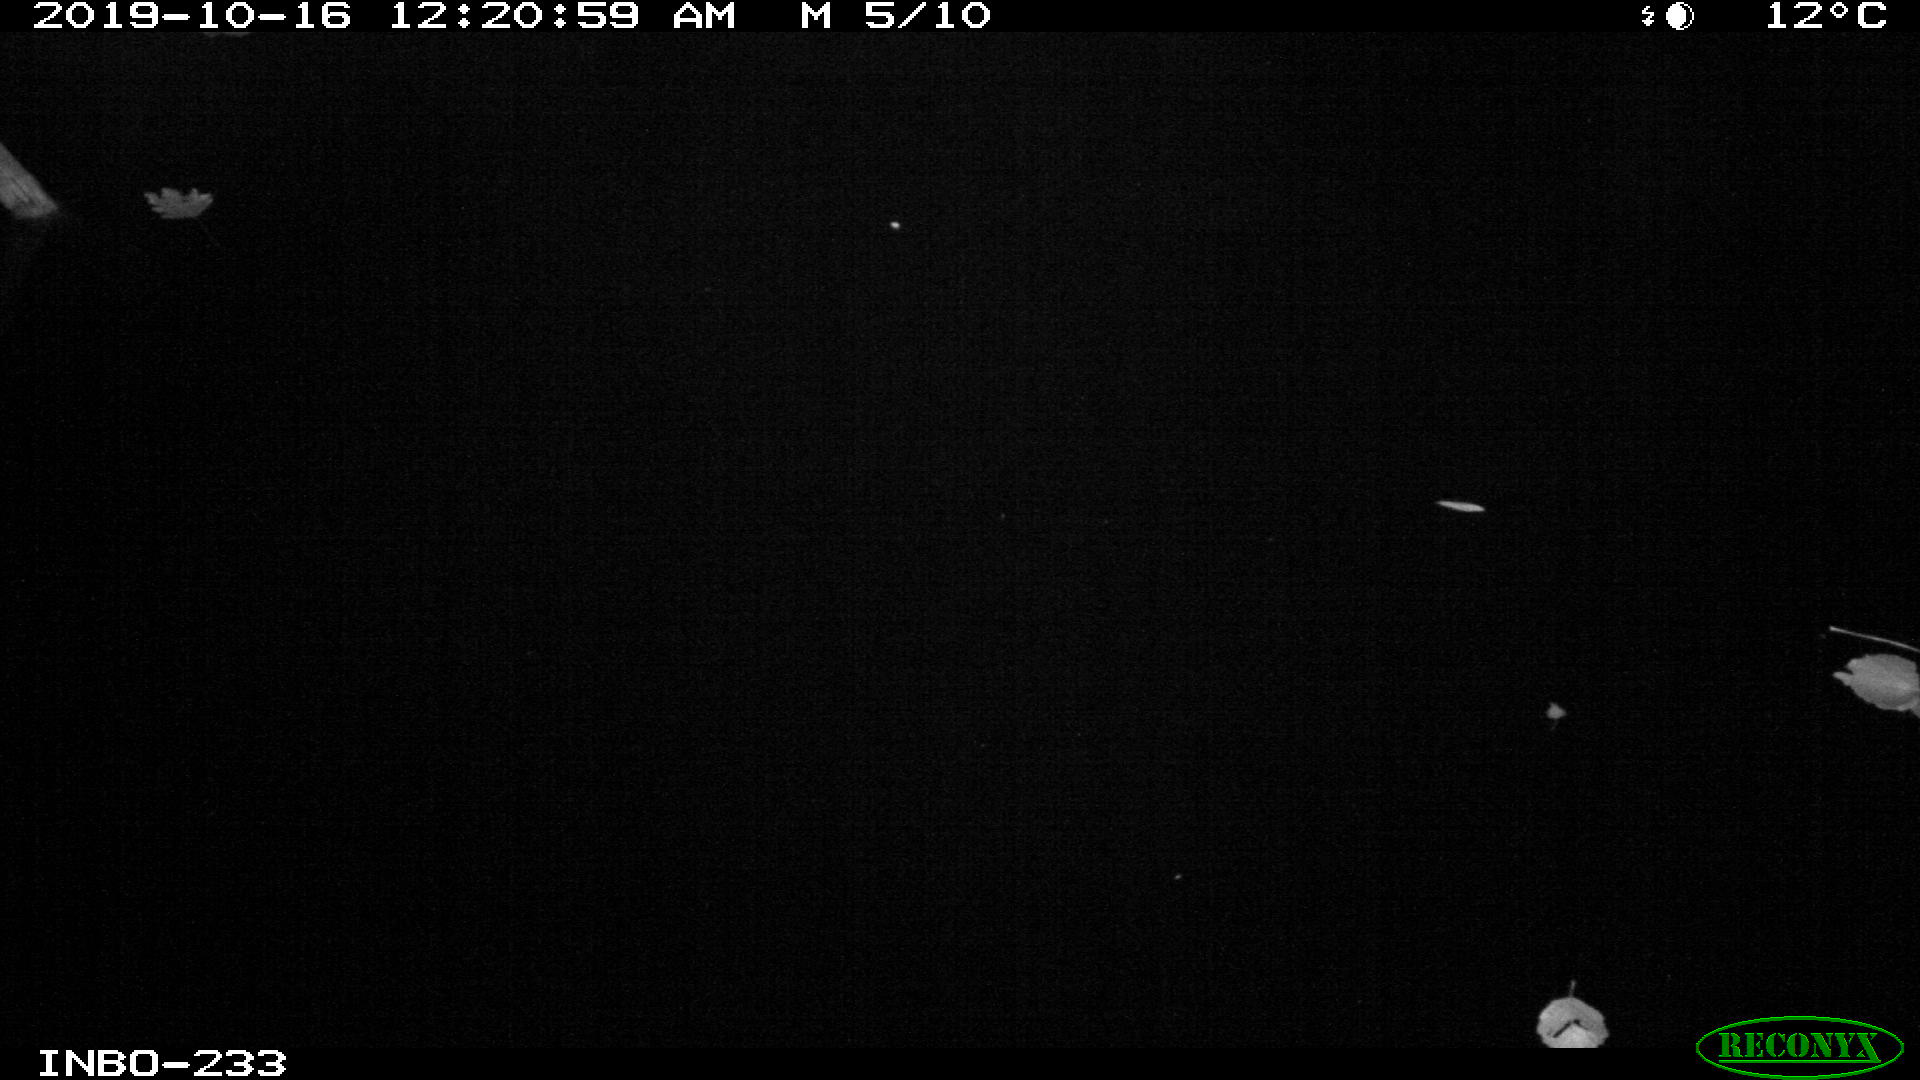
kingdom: Animalia
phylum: Chordata
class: Aves
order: Anseriformes
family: Anatidae
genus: Anas
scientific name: Anas platyrhynchos
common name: Mallard
